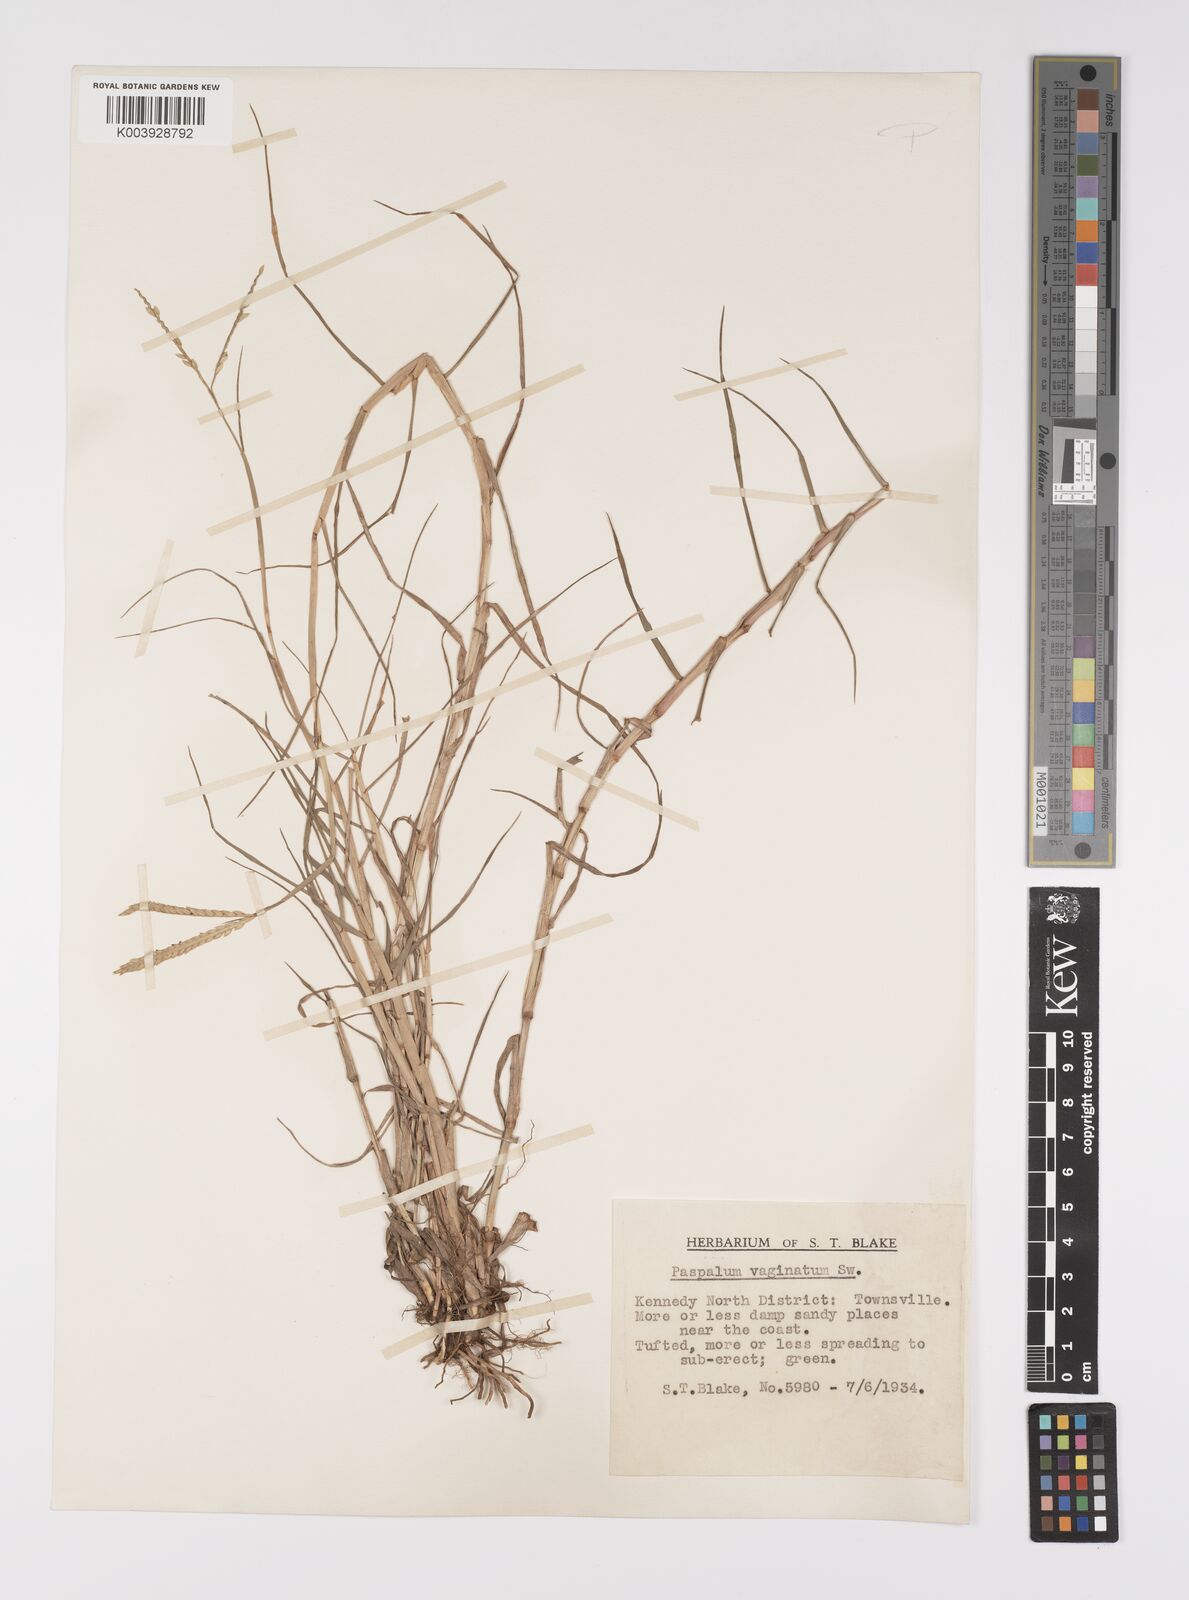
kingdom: Plantae
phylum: Tracheophyta
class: Liliopsida
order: Poales
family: Poaceae
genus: Paspalum
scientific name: Paspalum vaginatum
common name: Seashore paspalum
